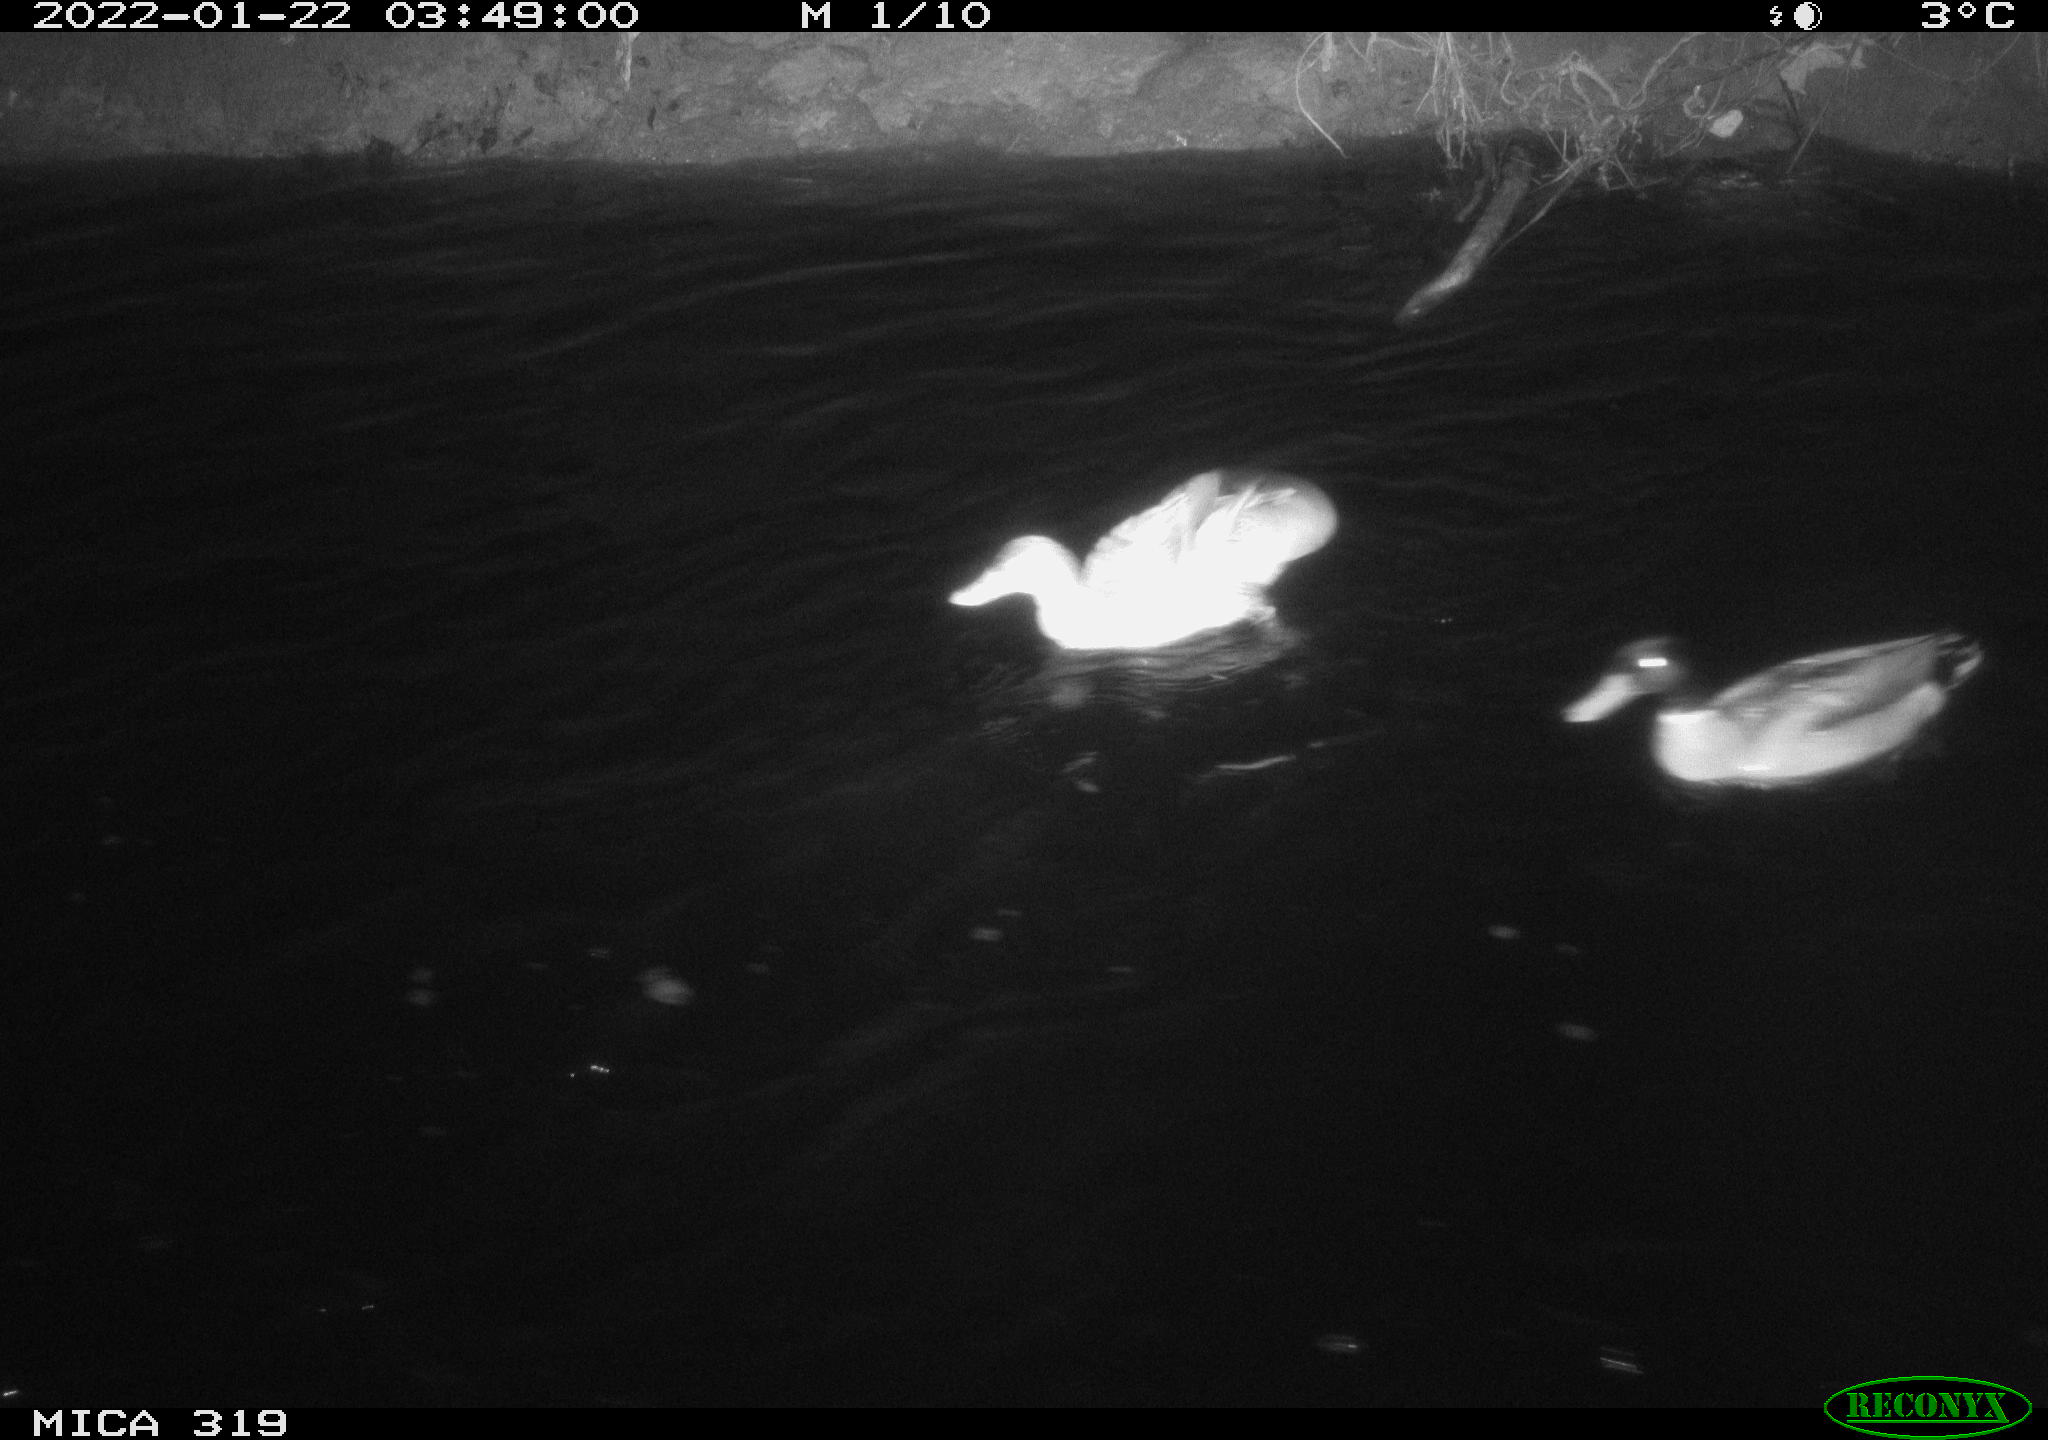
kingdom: Animalia
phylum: Chordata
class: Aves
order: Anseriformes
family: Anatidae
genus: Anas
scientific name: Anas platyrhynchos
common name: Mallard
